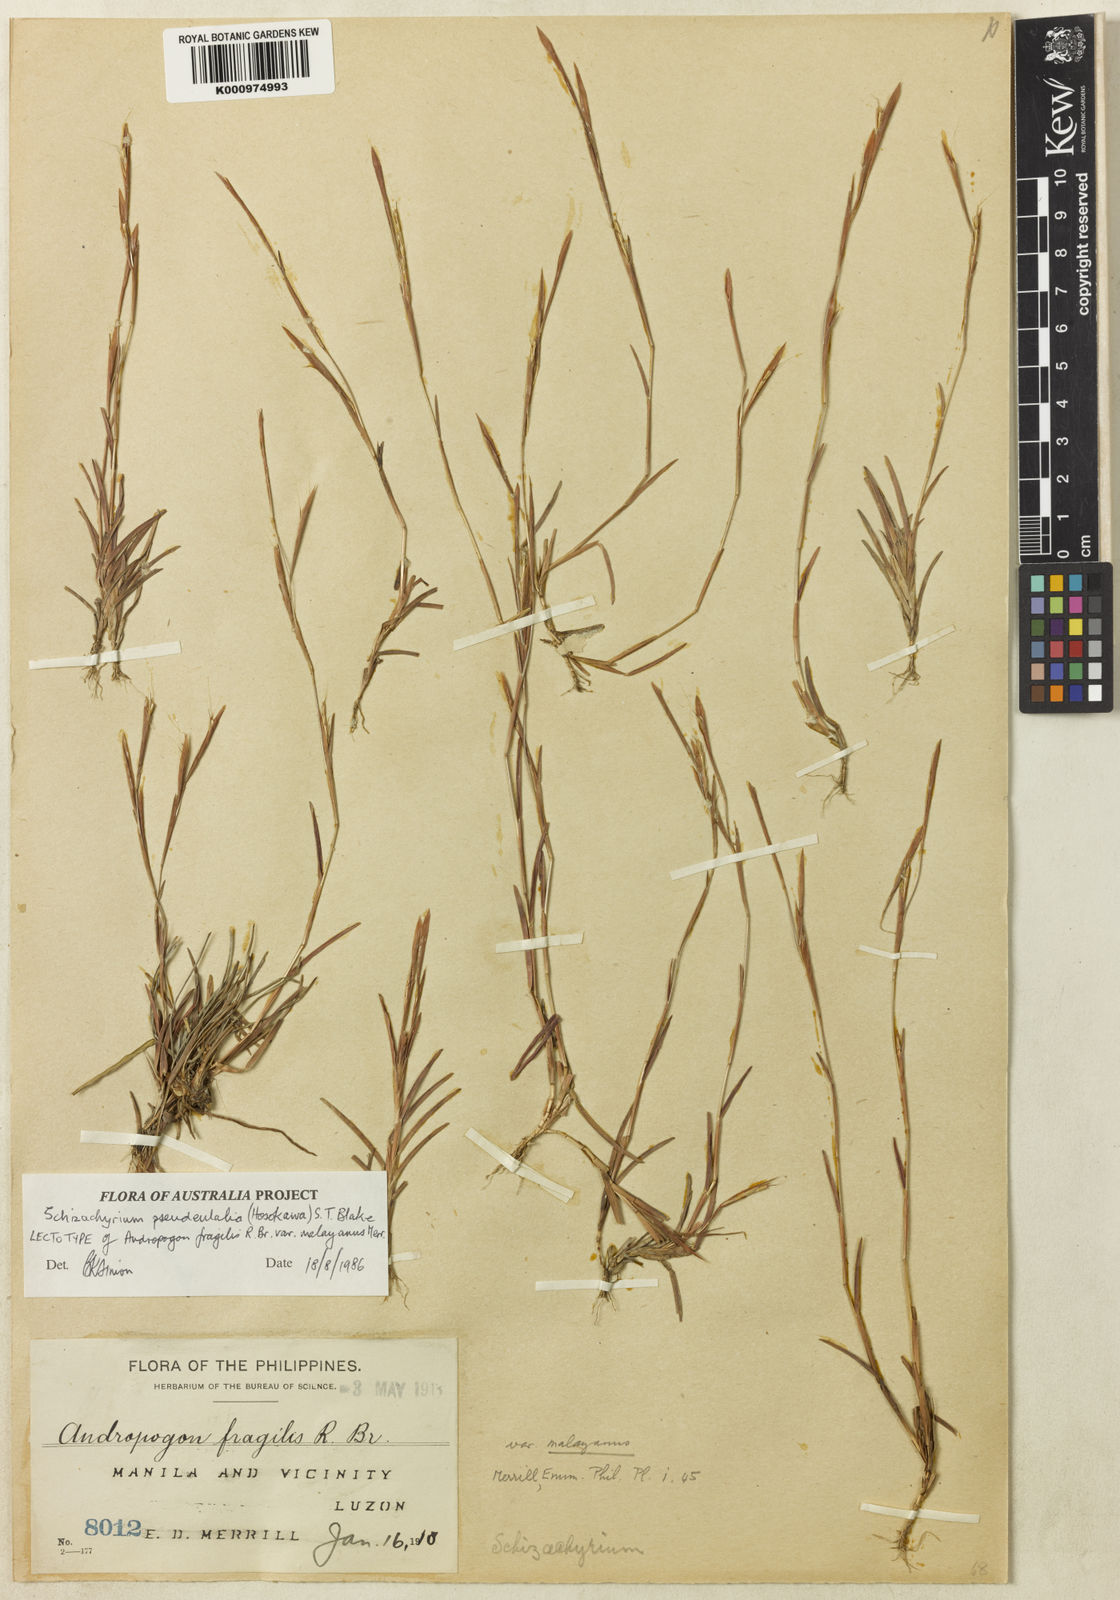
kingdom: Plantae
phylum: Tracheophyta
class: Liliopsida
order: Poales
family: Poaceae
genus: Schizachyrium
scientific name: Schizachyrium pseudeulalia
